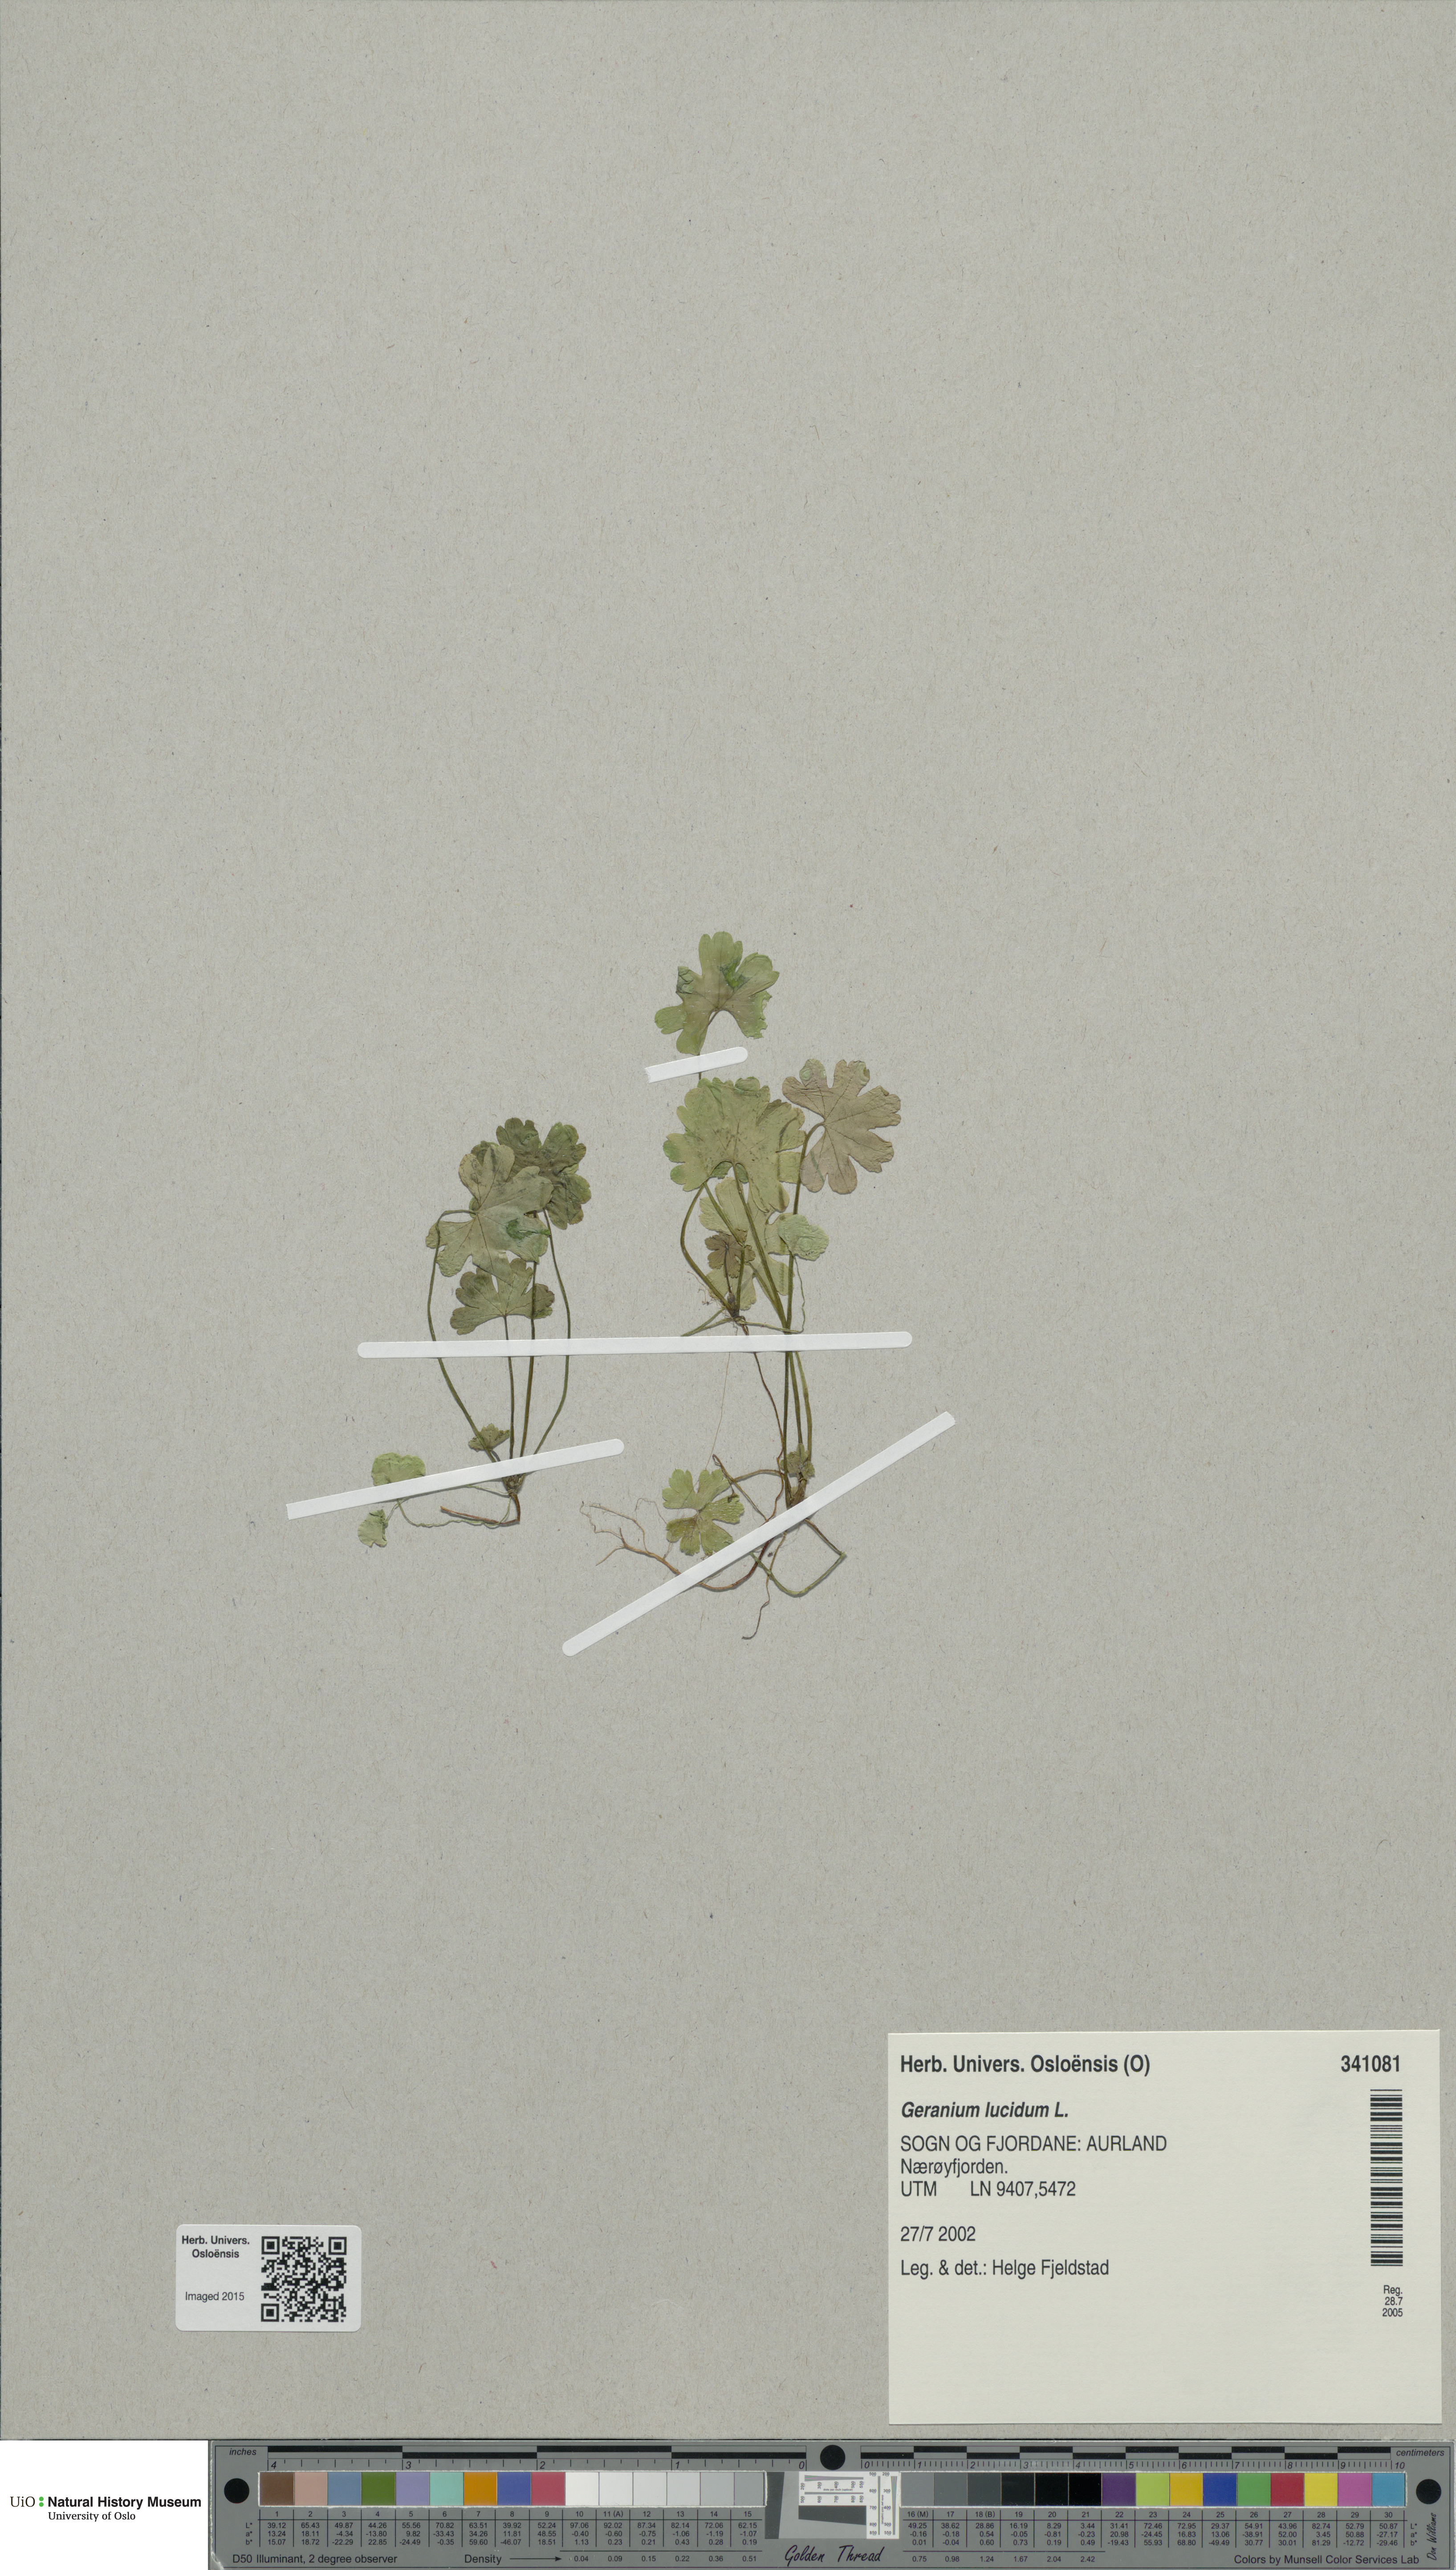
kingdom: Plantae
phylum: Tracheophyta
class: Magnoliopsida
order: Geraniales
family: Geraniaceae
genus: Geranium
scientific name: Geranium lucidum
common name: Shining crane's-bill
